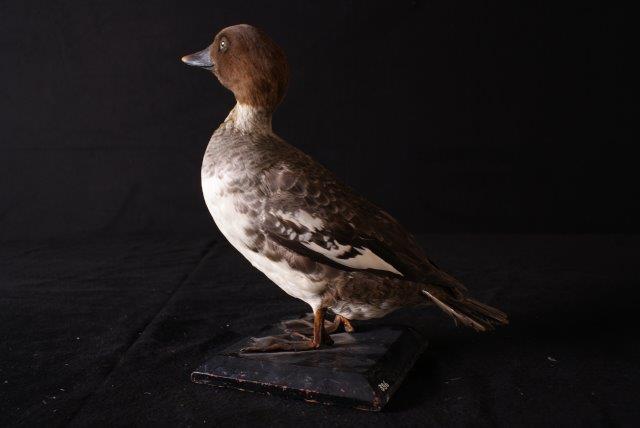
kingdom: Animalia
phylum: Chordata
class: Aves
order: Anseriformes
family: Anatidae
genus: Bucephala
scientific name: Bucephala clangula
